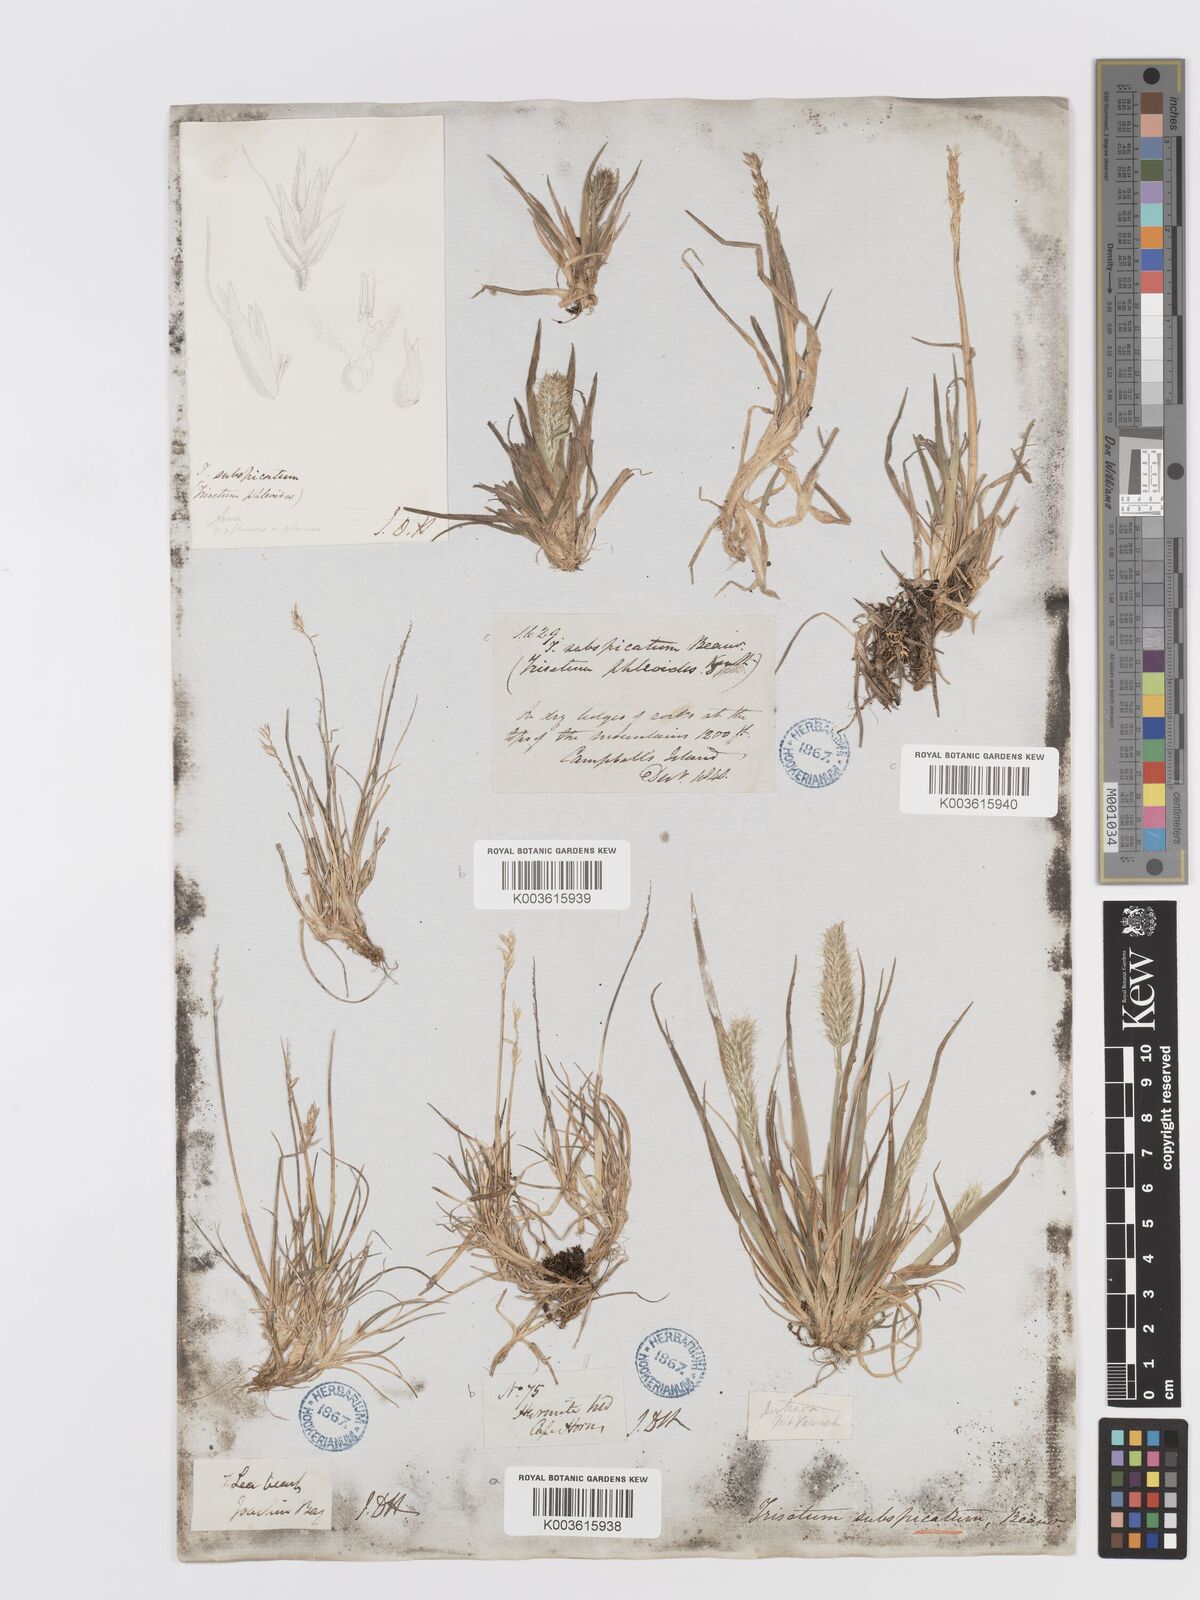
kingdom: Plantae
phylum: Tracheophyta
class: Liliopsida
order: Poales
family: Poaceae
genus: Koeleria
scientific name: Koeleria spicata
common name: Mountain trisetum
